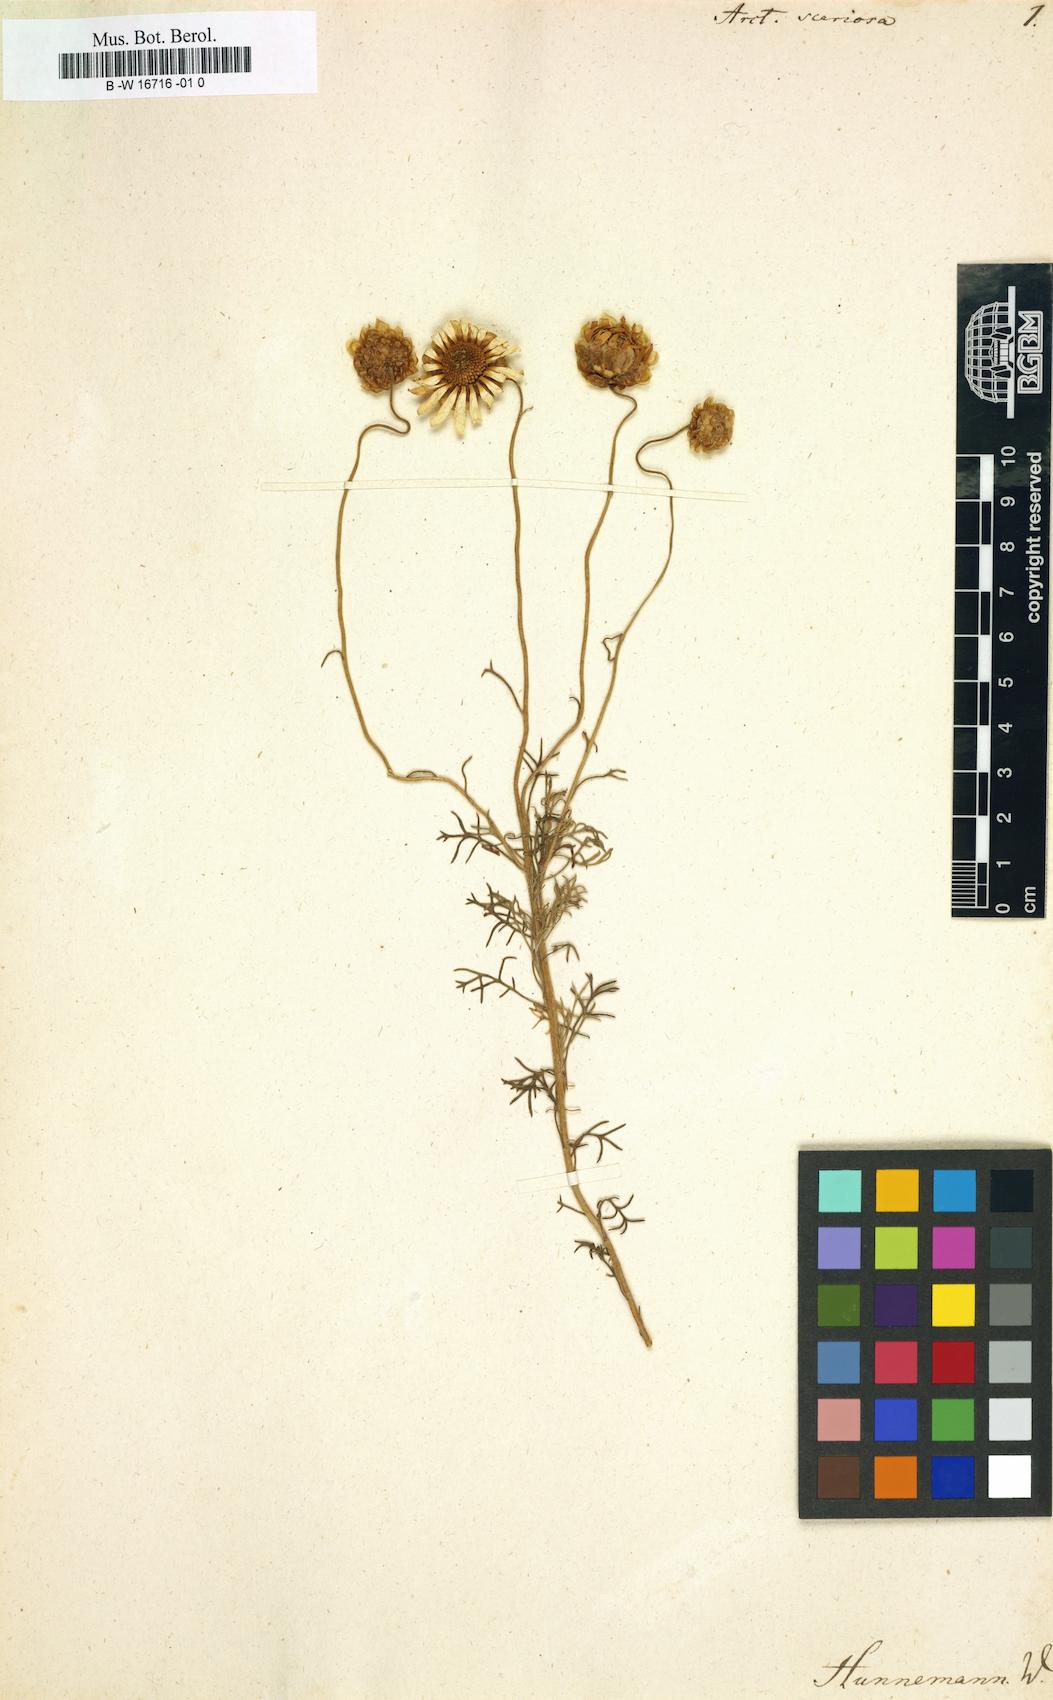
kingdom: Plantae
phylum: Tracheophyta
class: Magnoliopsida
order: Asterales
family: Asteraceae
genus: Ursinia
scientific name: Ursinia scariosa
